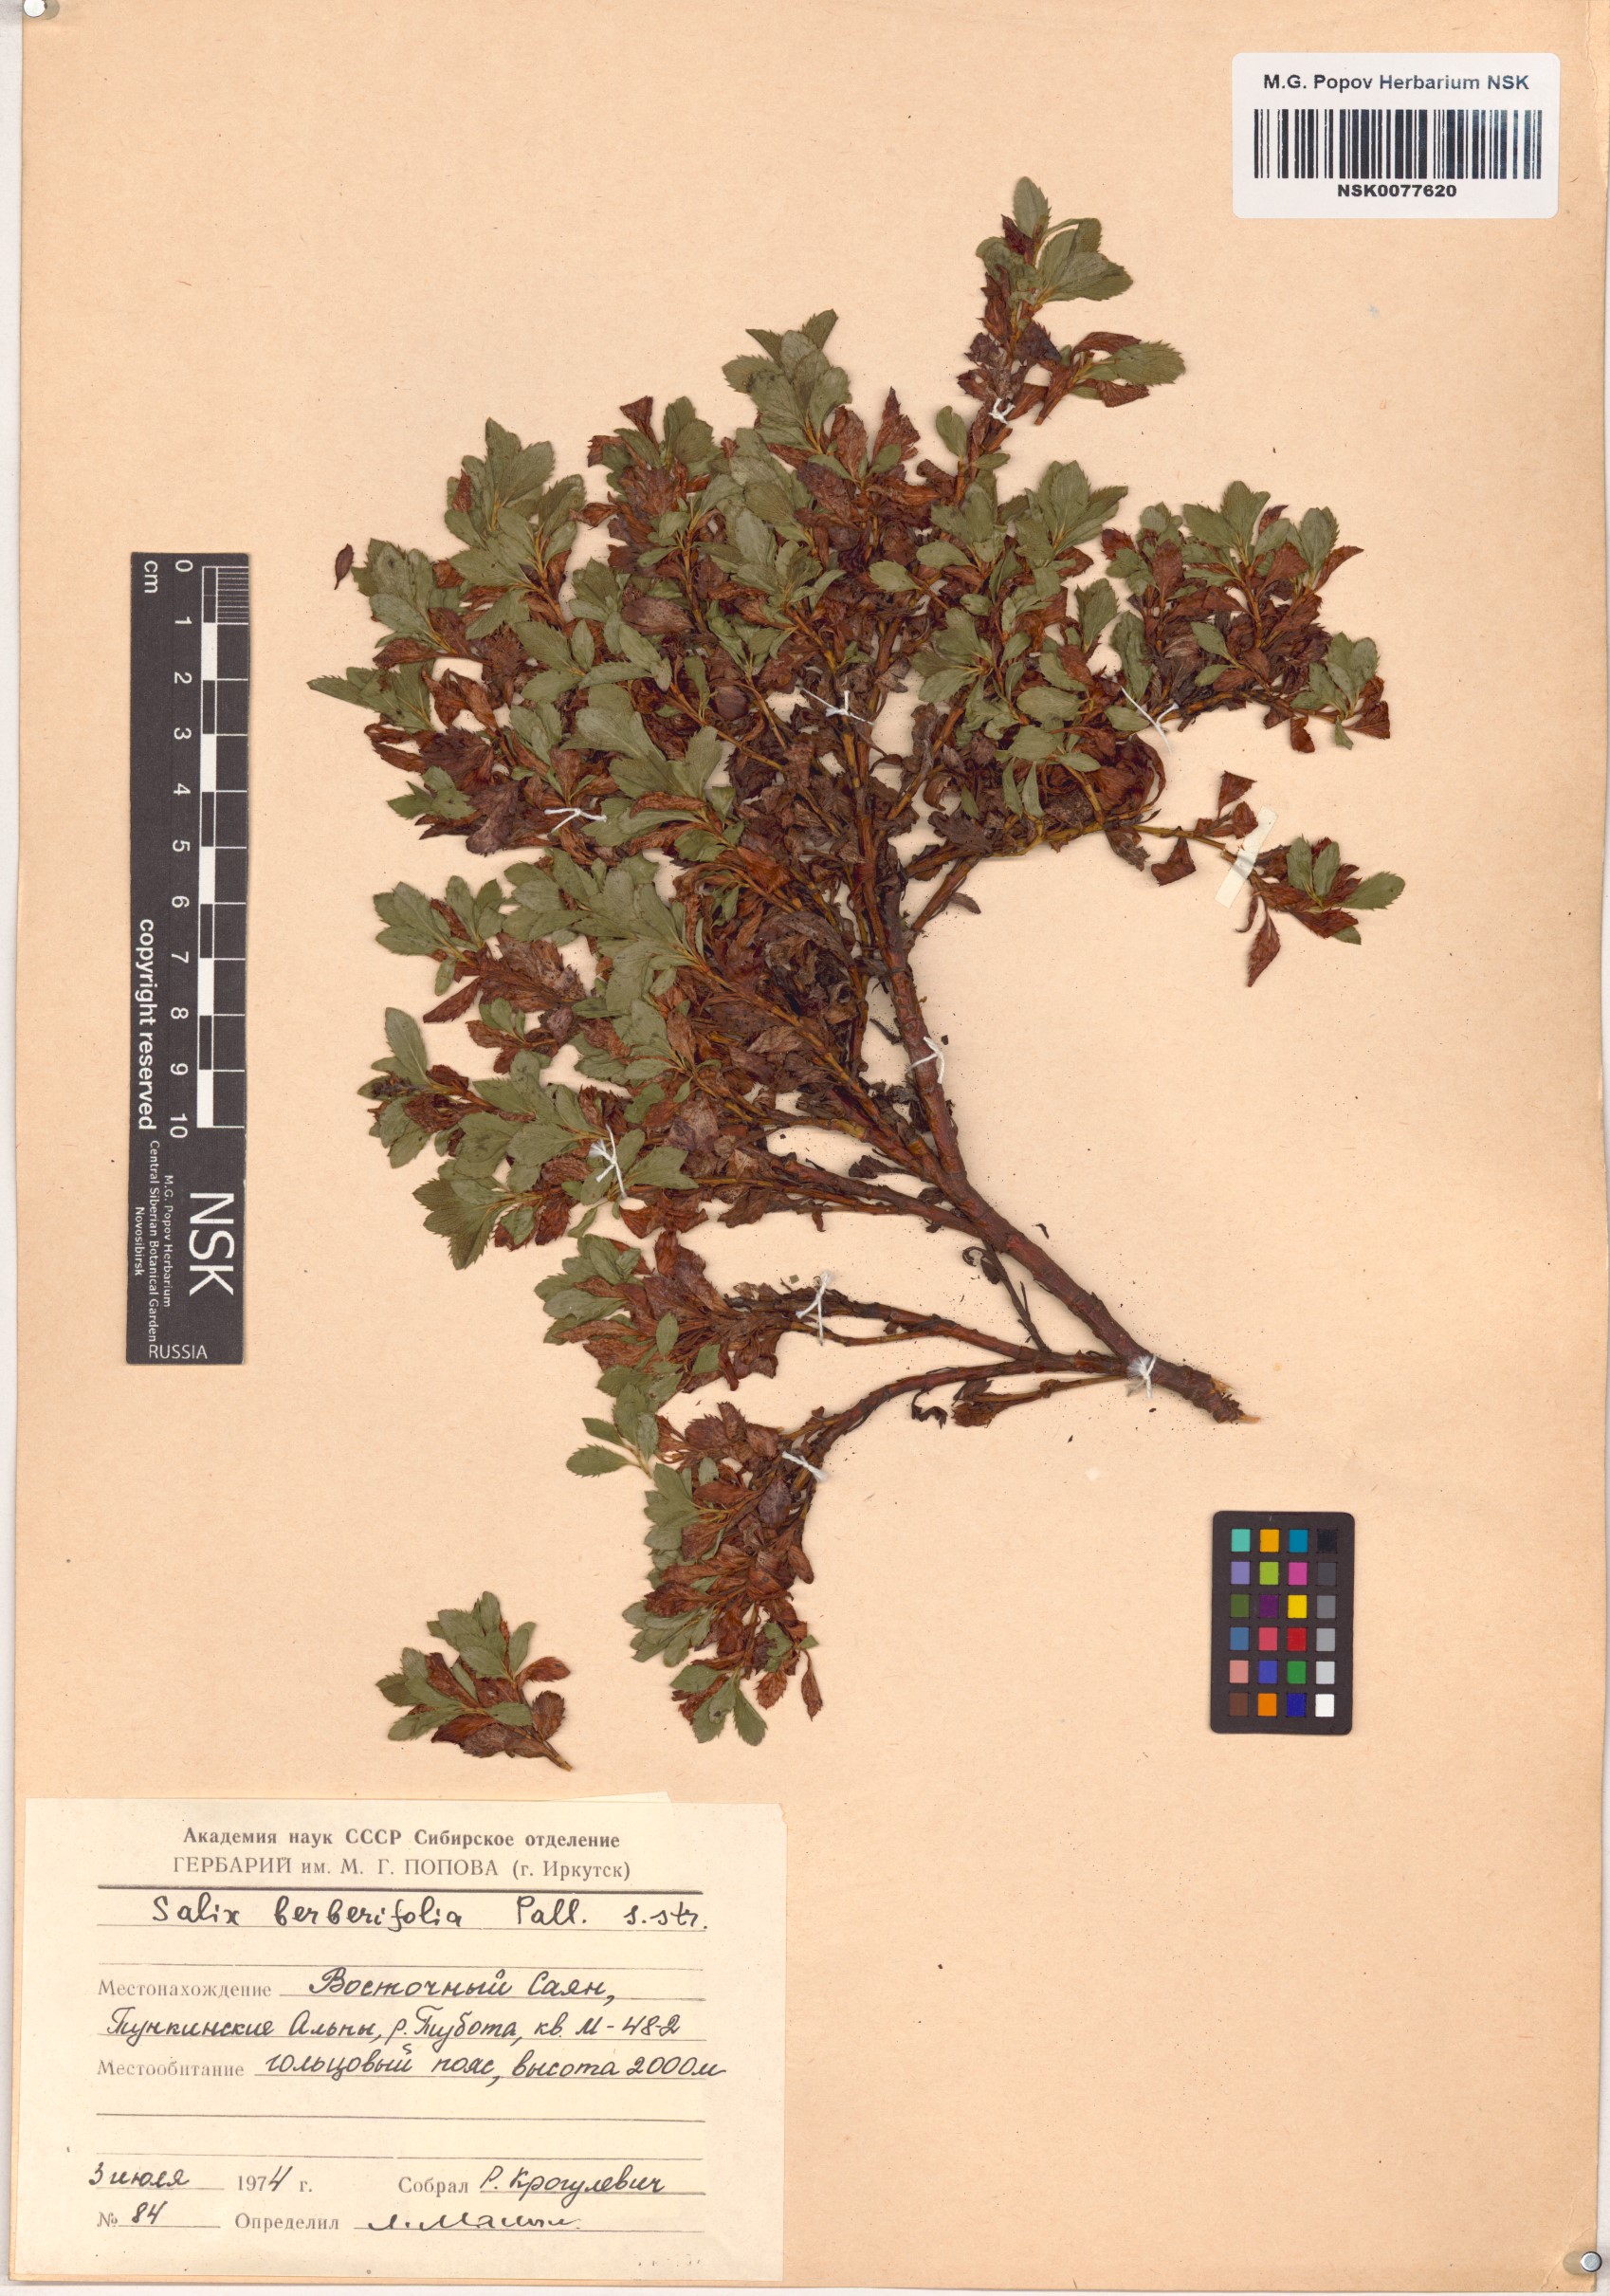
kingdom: Plantae
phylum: Tracheophyta
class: Magnoliopsida
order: Malpighiales
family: Salicaceae
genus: Salix
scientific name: Salix berberifolia
